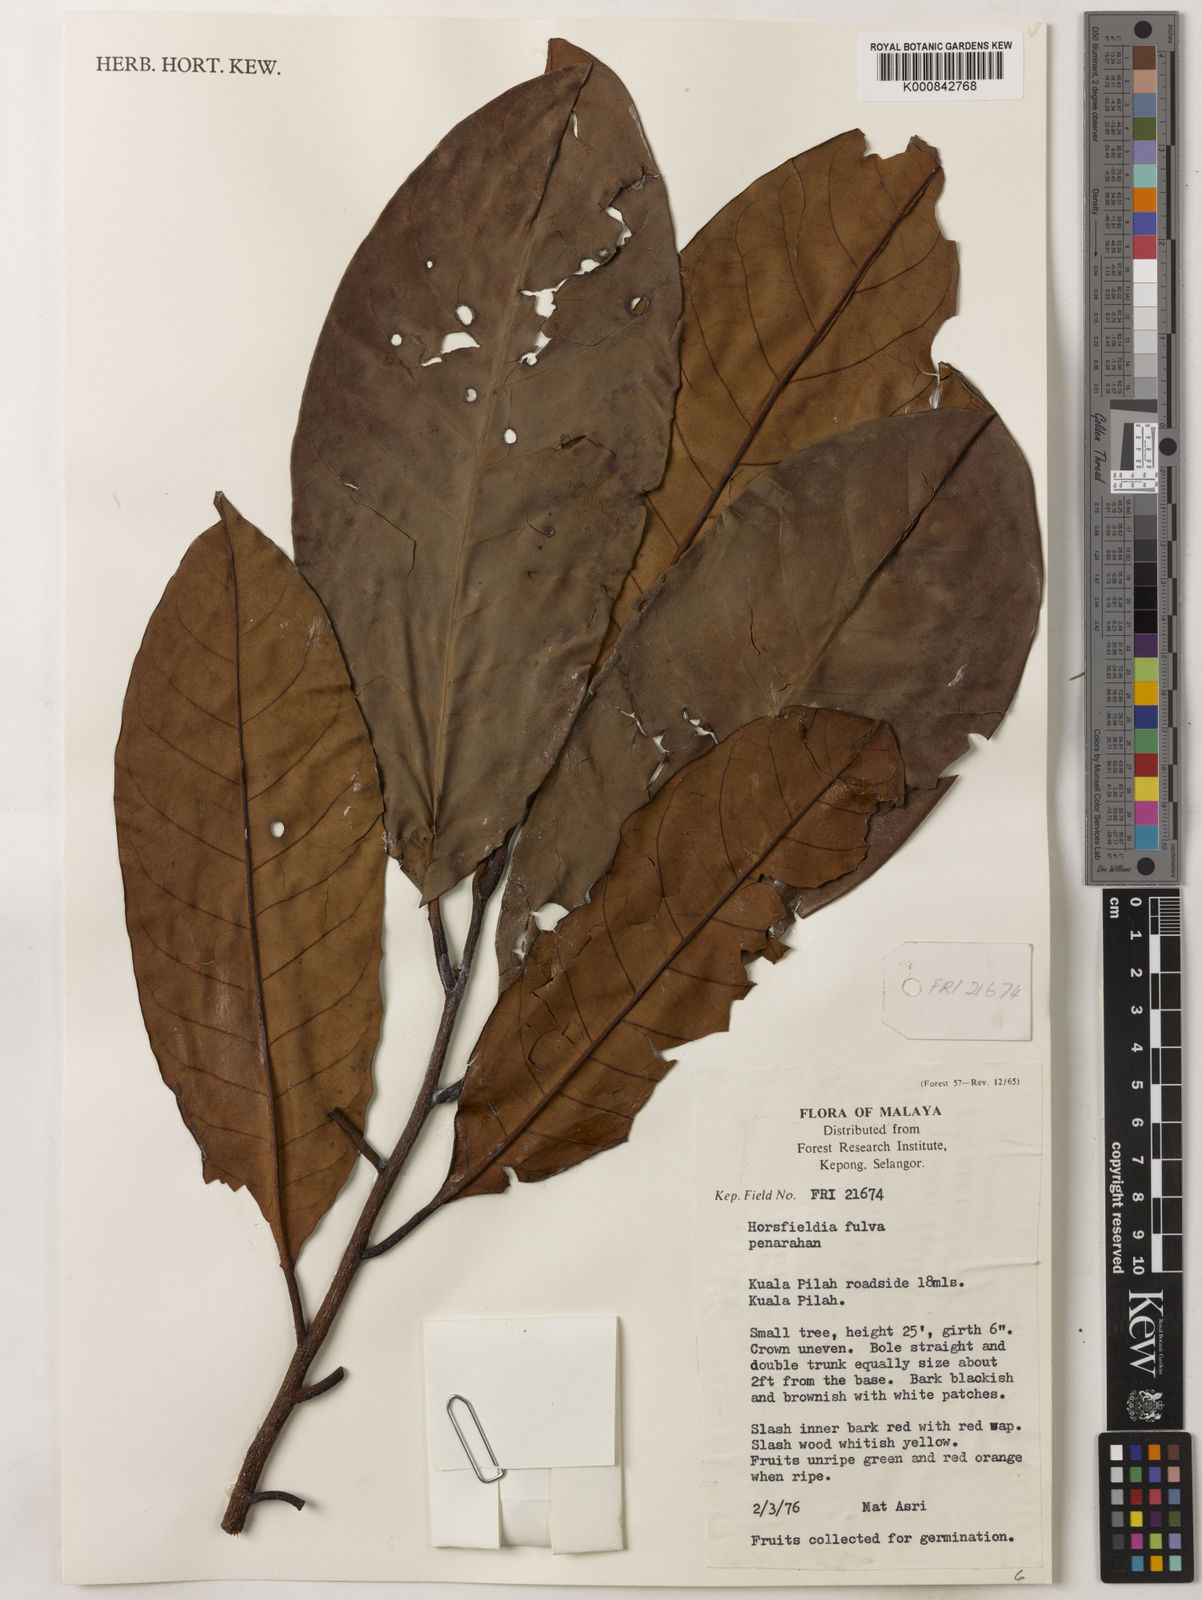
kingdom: Plantae
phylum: Tracheophyta
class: Magnoliopsida
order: Magnoliales
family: Myristicaceae
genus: Horsfieldia
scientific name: Horsfieldia fulva
